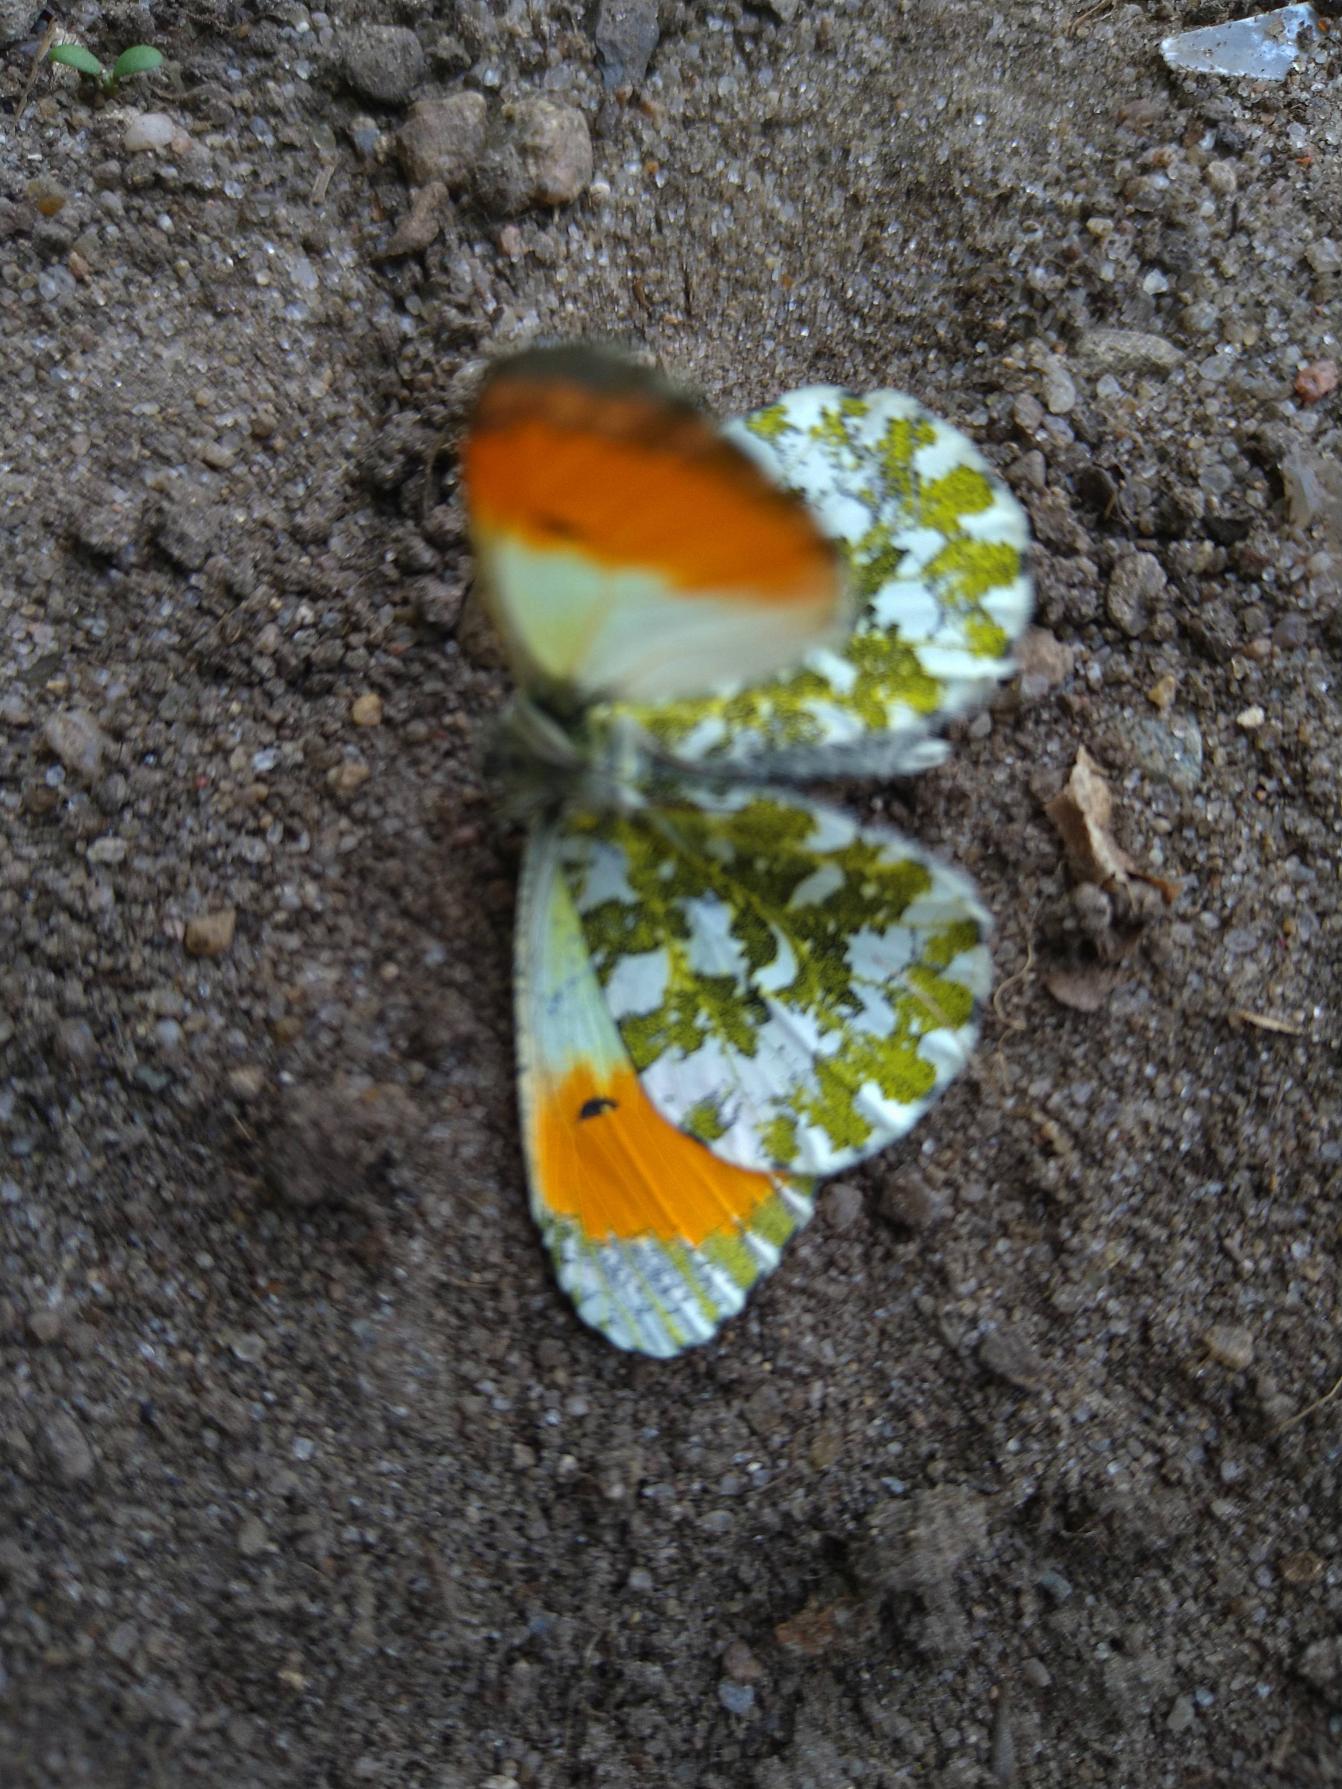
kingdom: Animalia
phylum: Arthropoda
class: Insecta
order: Lepidoptera
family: Pieridae
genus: Anthocharis
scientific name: Anthocharis cardamines
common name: Aurora
